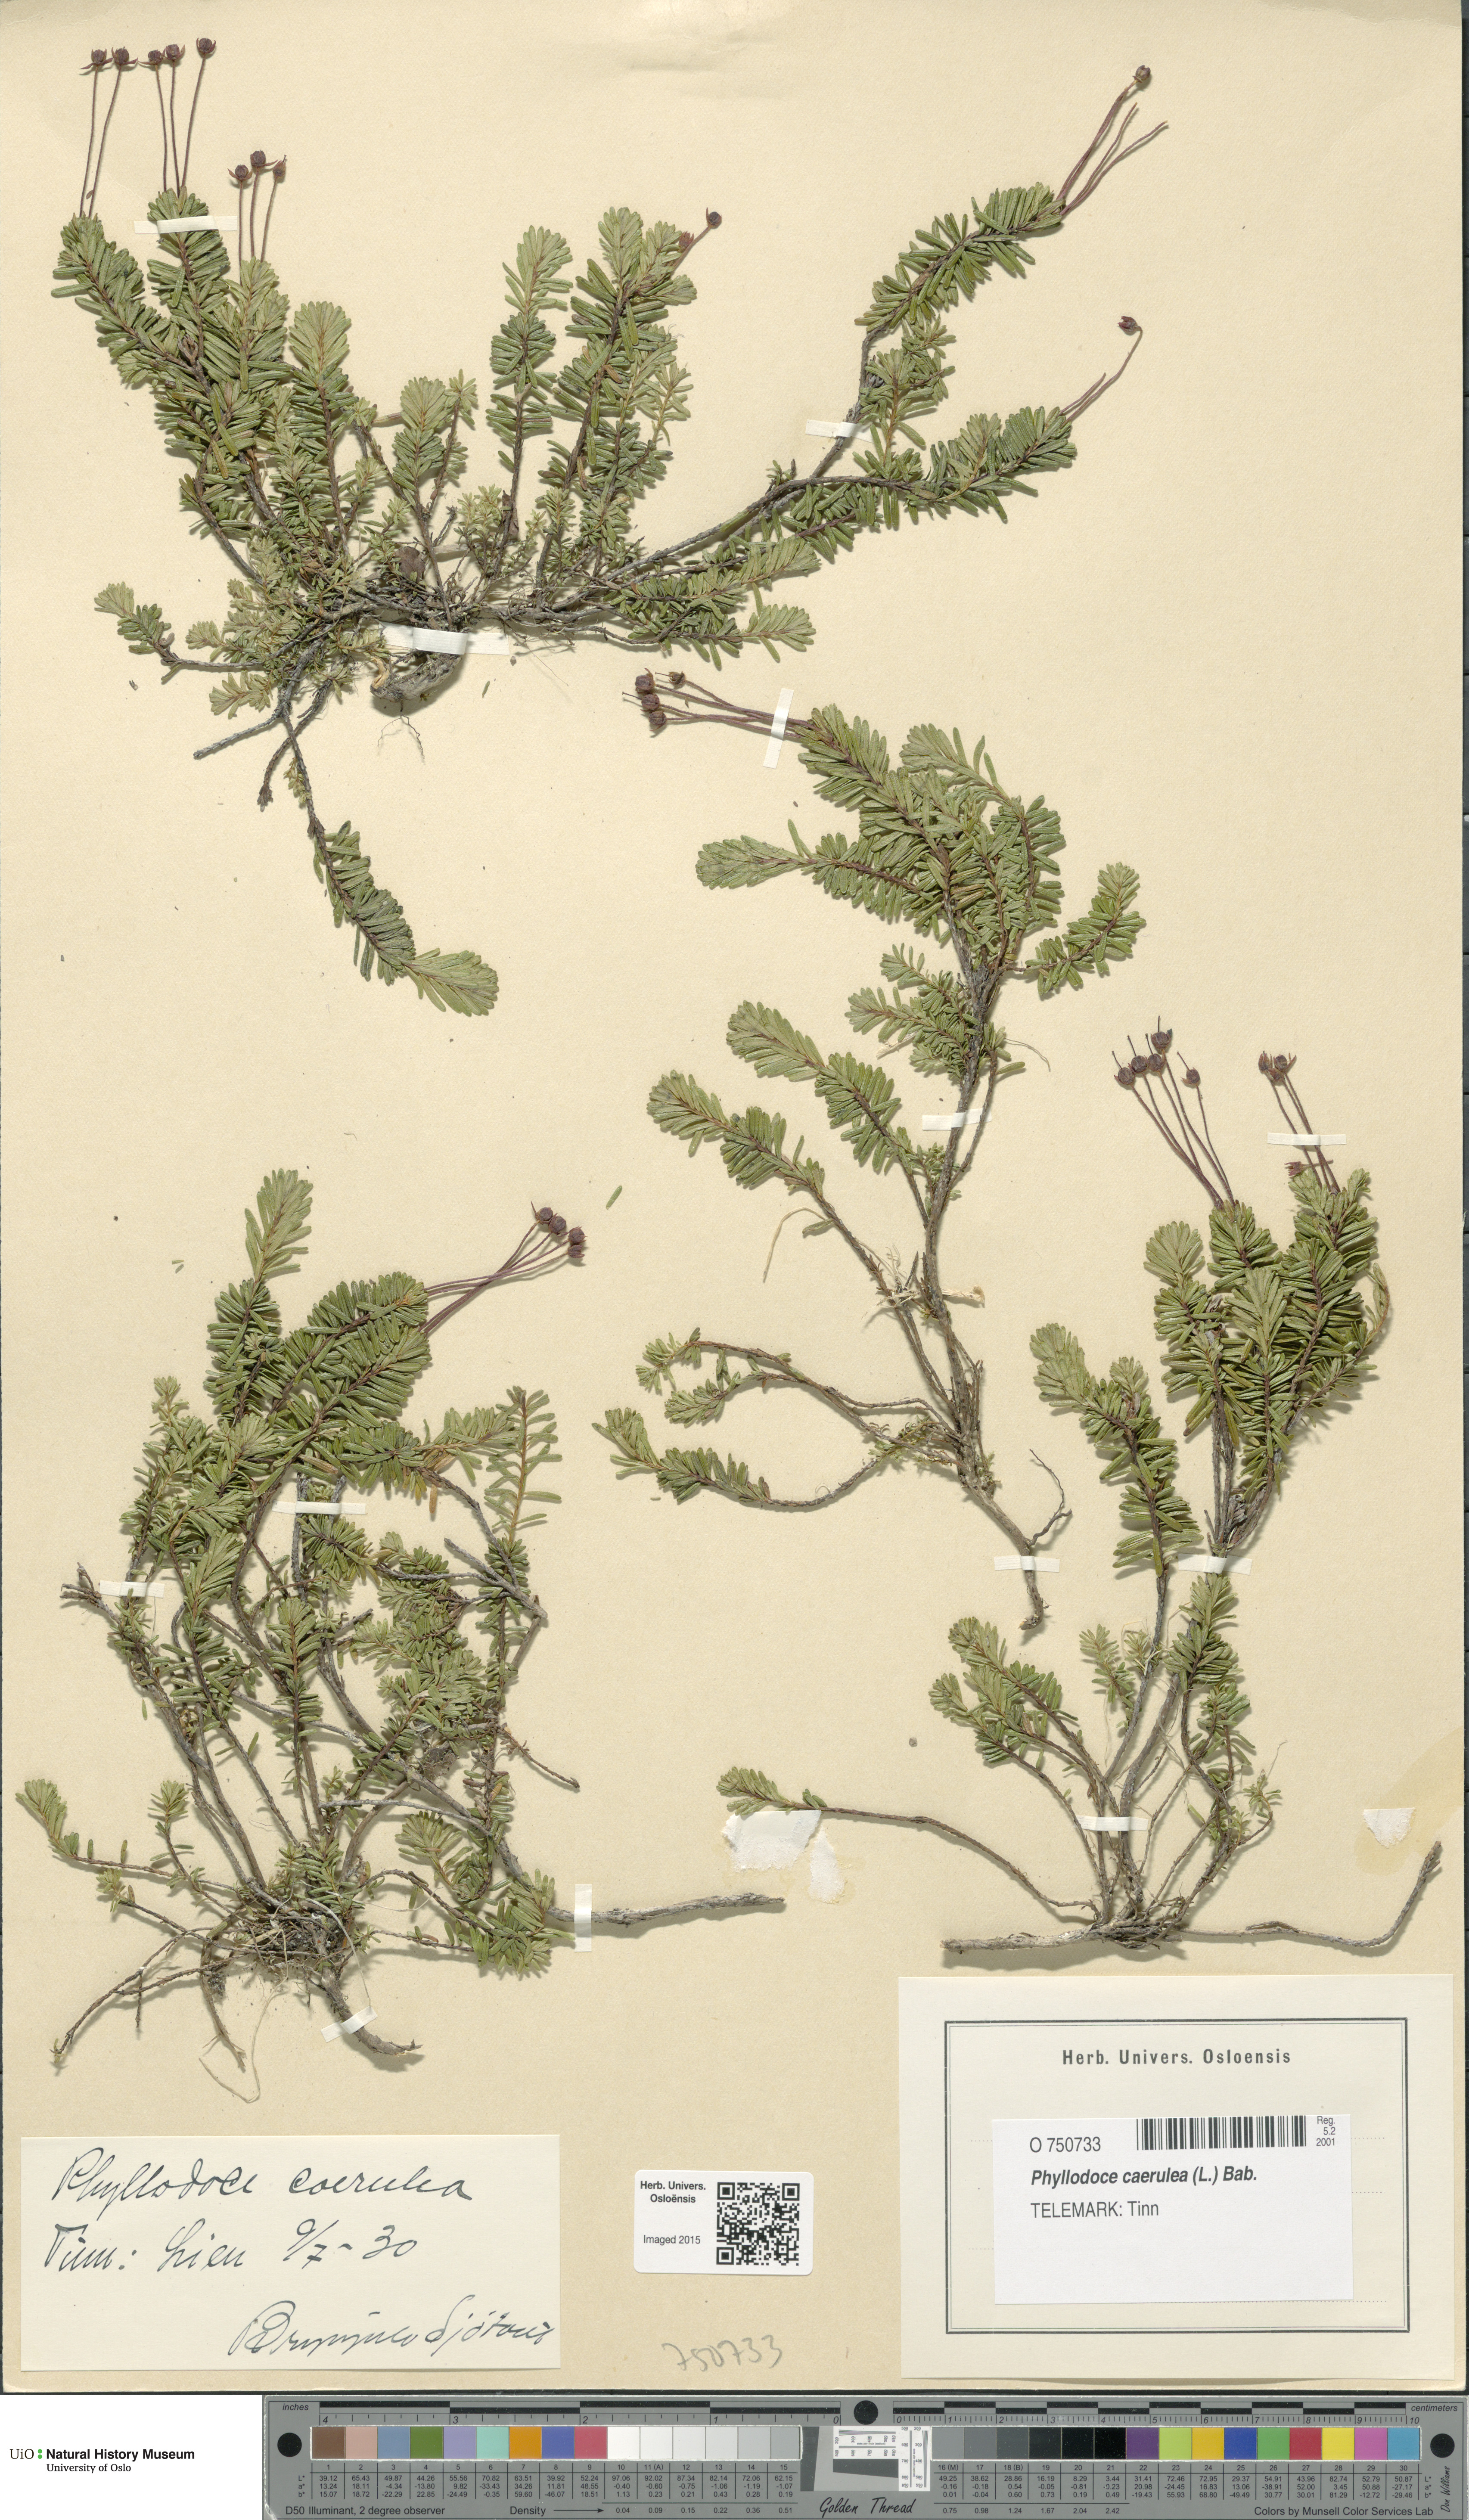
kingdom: Plantae
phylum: Tracheophyta
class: Magnoliopsida
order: Ericales
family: Ericaceae
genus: Phyllodoce
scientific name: Phyllodoce caerulea
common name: Blue heath
